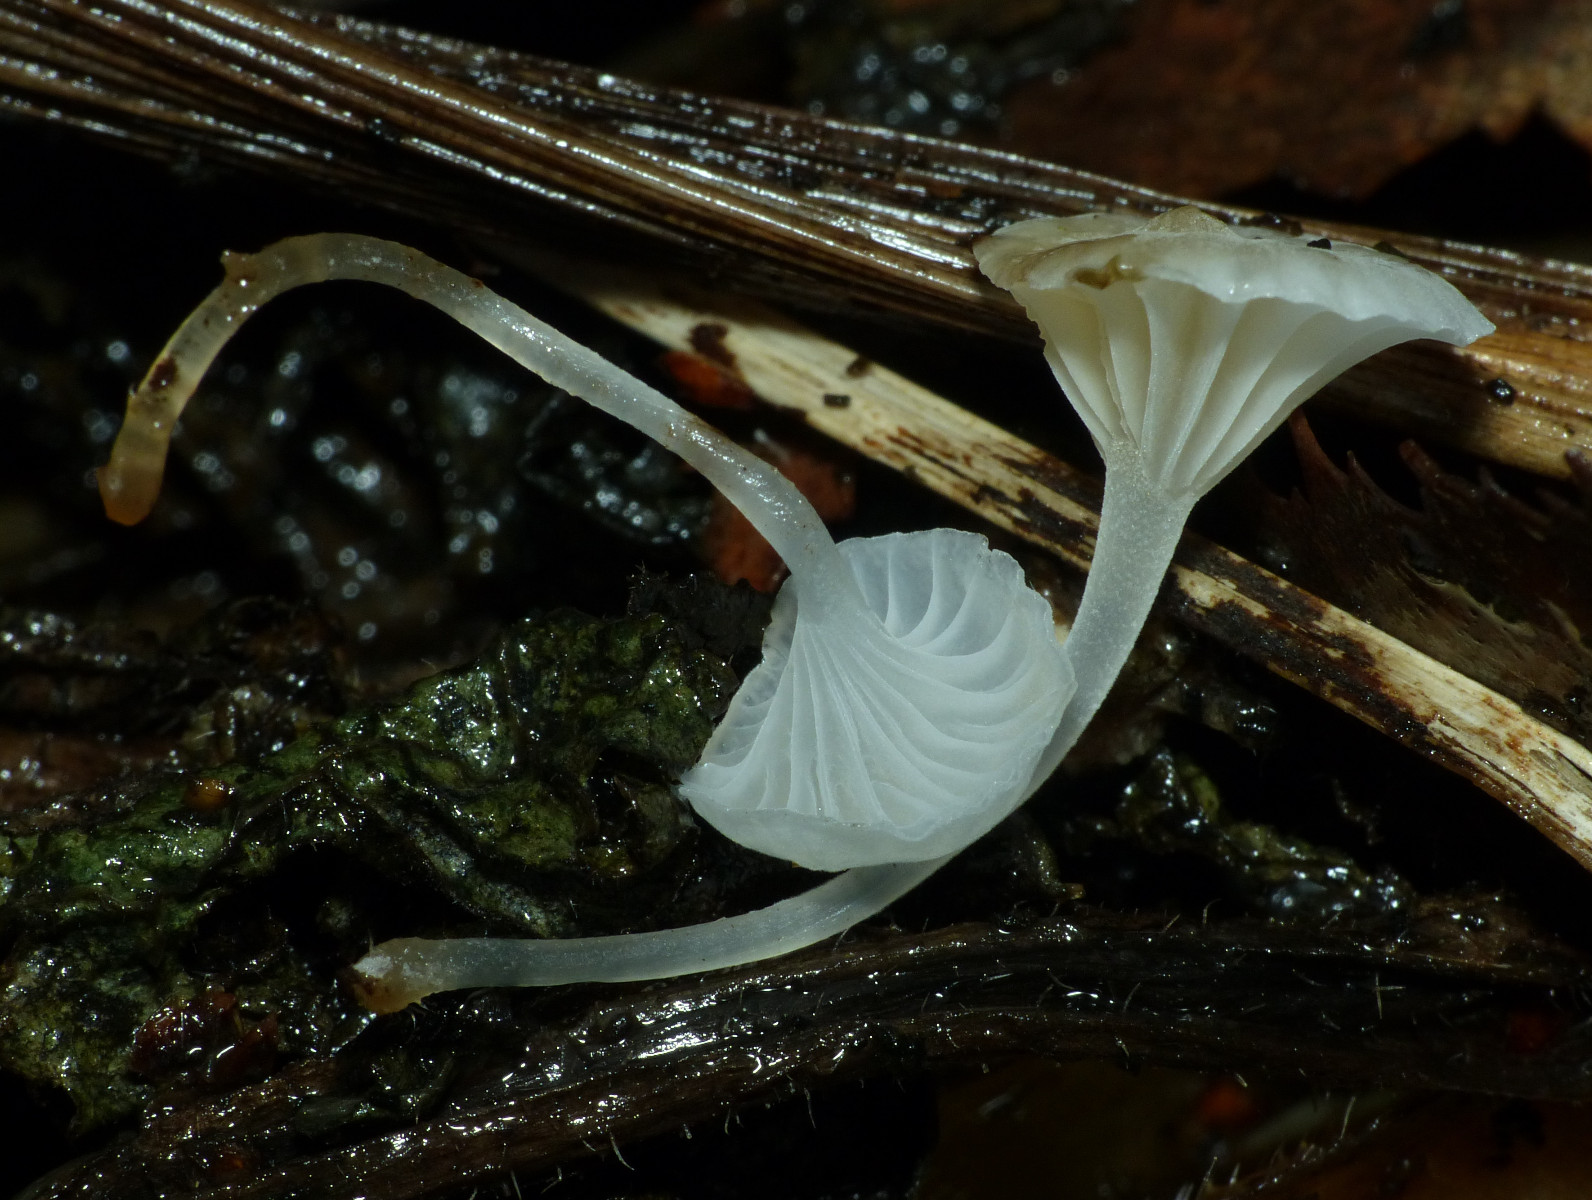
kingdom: Fungi
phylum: Basidiomycota
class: Agaricomycetes
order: Agaricales
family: Mycenaceae
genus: Hemimycena
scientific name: Hemimycena candida
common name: kulsukker-huesvamp
